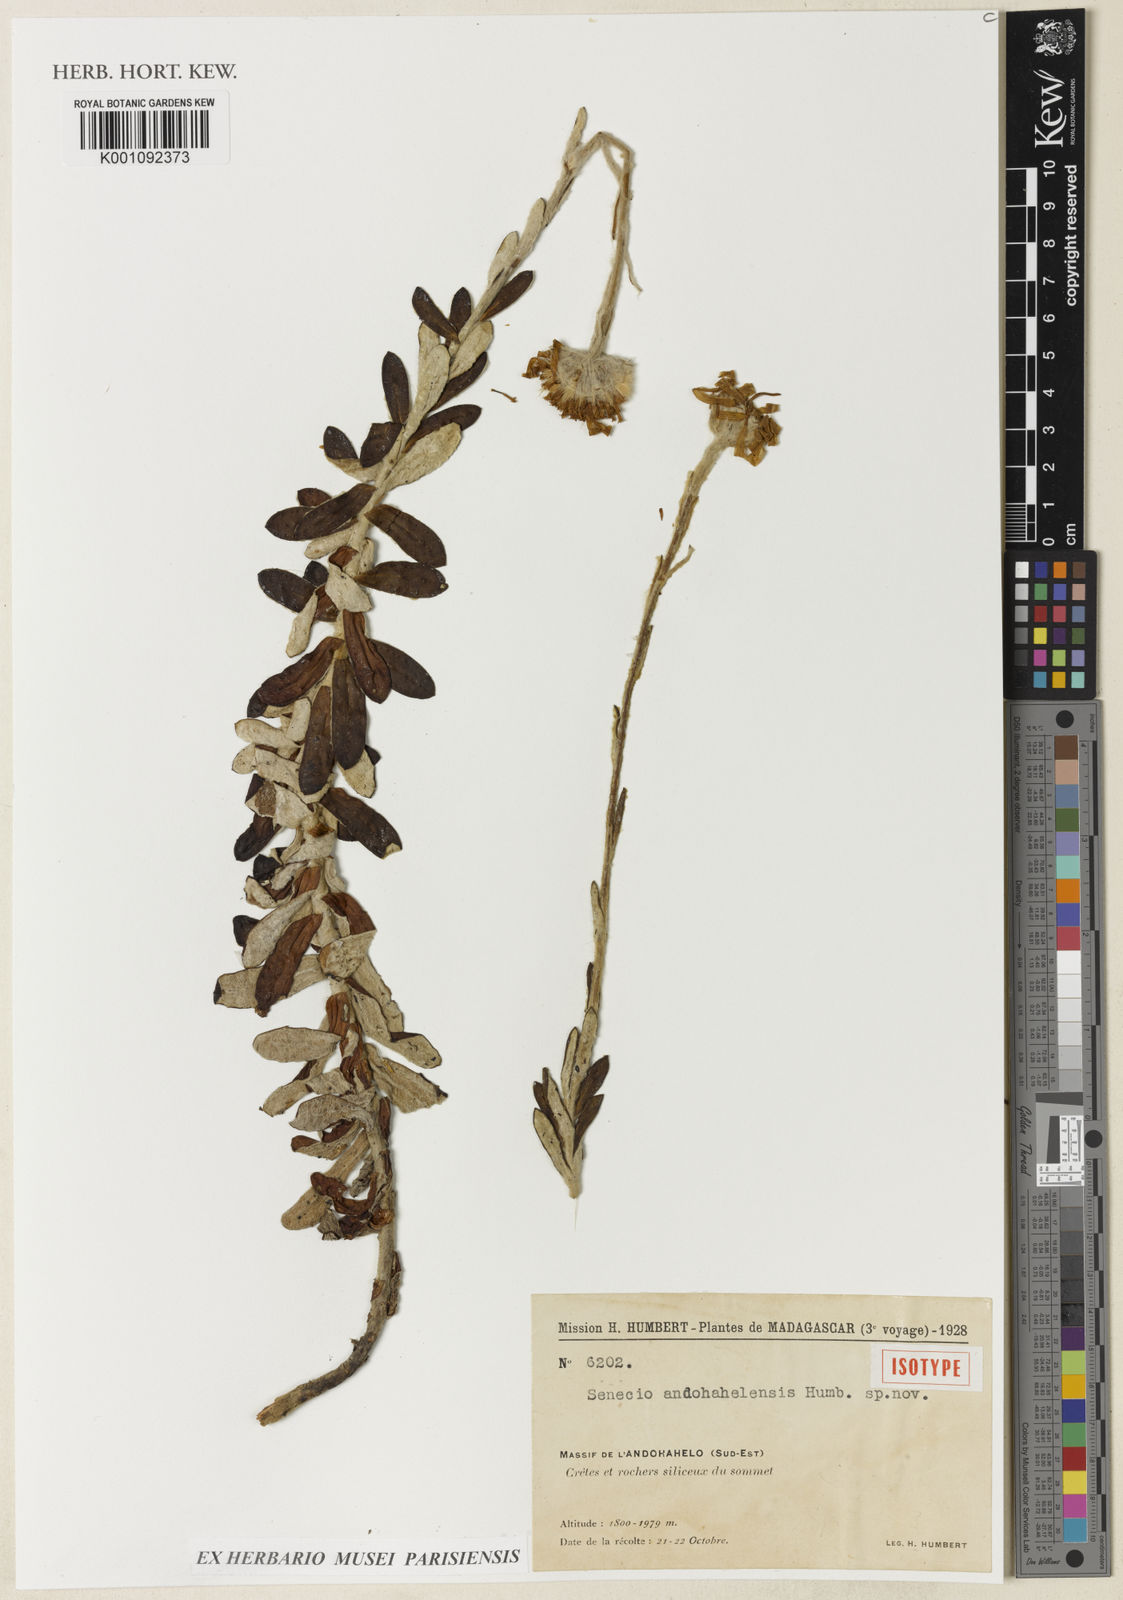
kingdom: Plantae
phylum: Tracheophyta
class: Magnoliopsida
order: Asterales
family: Asteraceae
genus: Senecio
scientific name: Senecio andohahelensis
